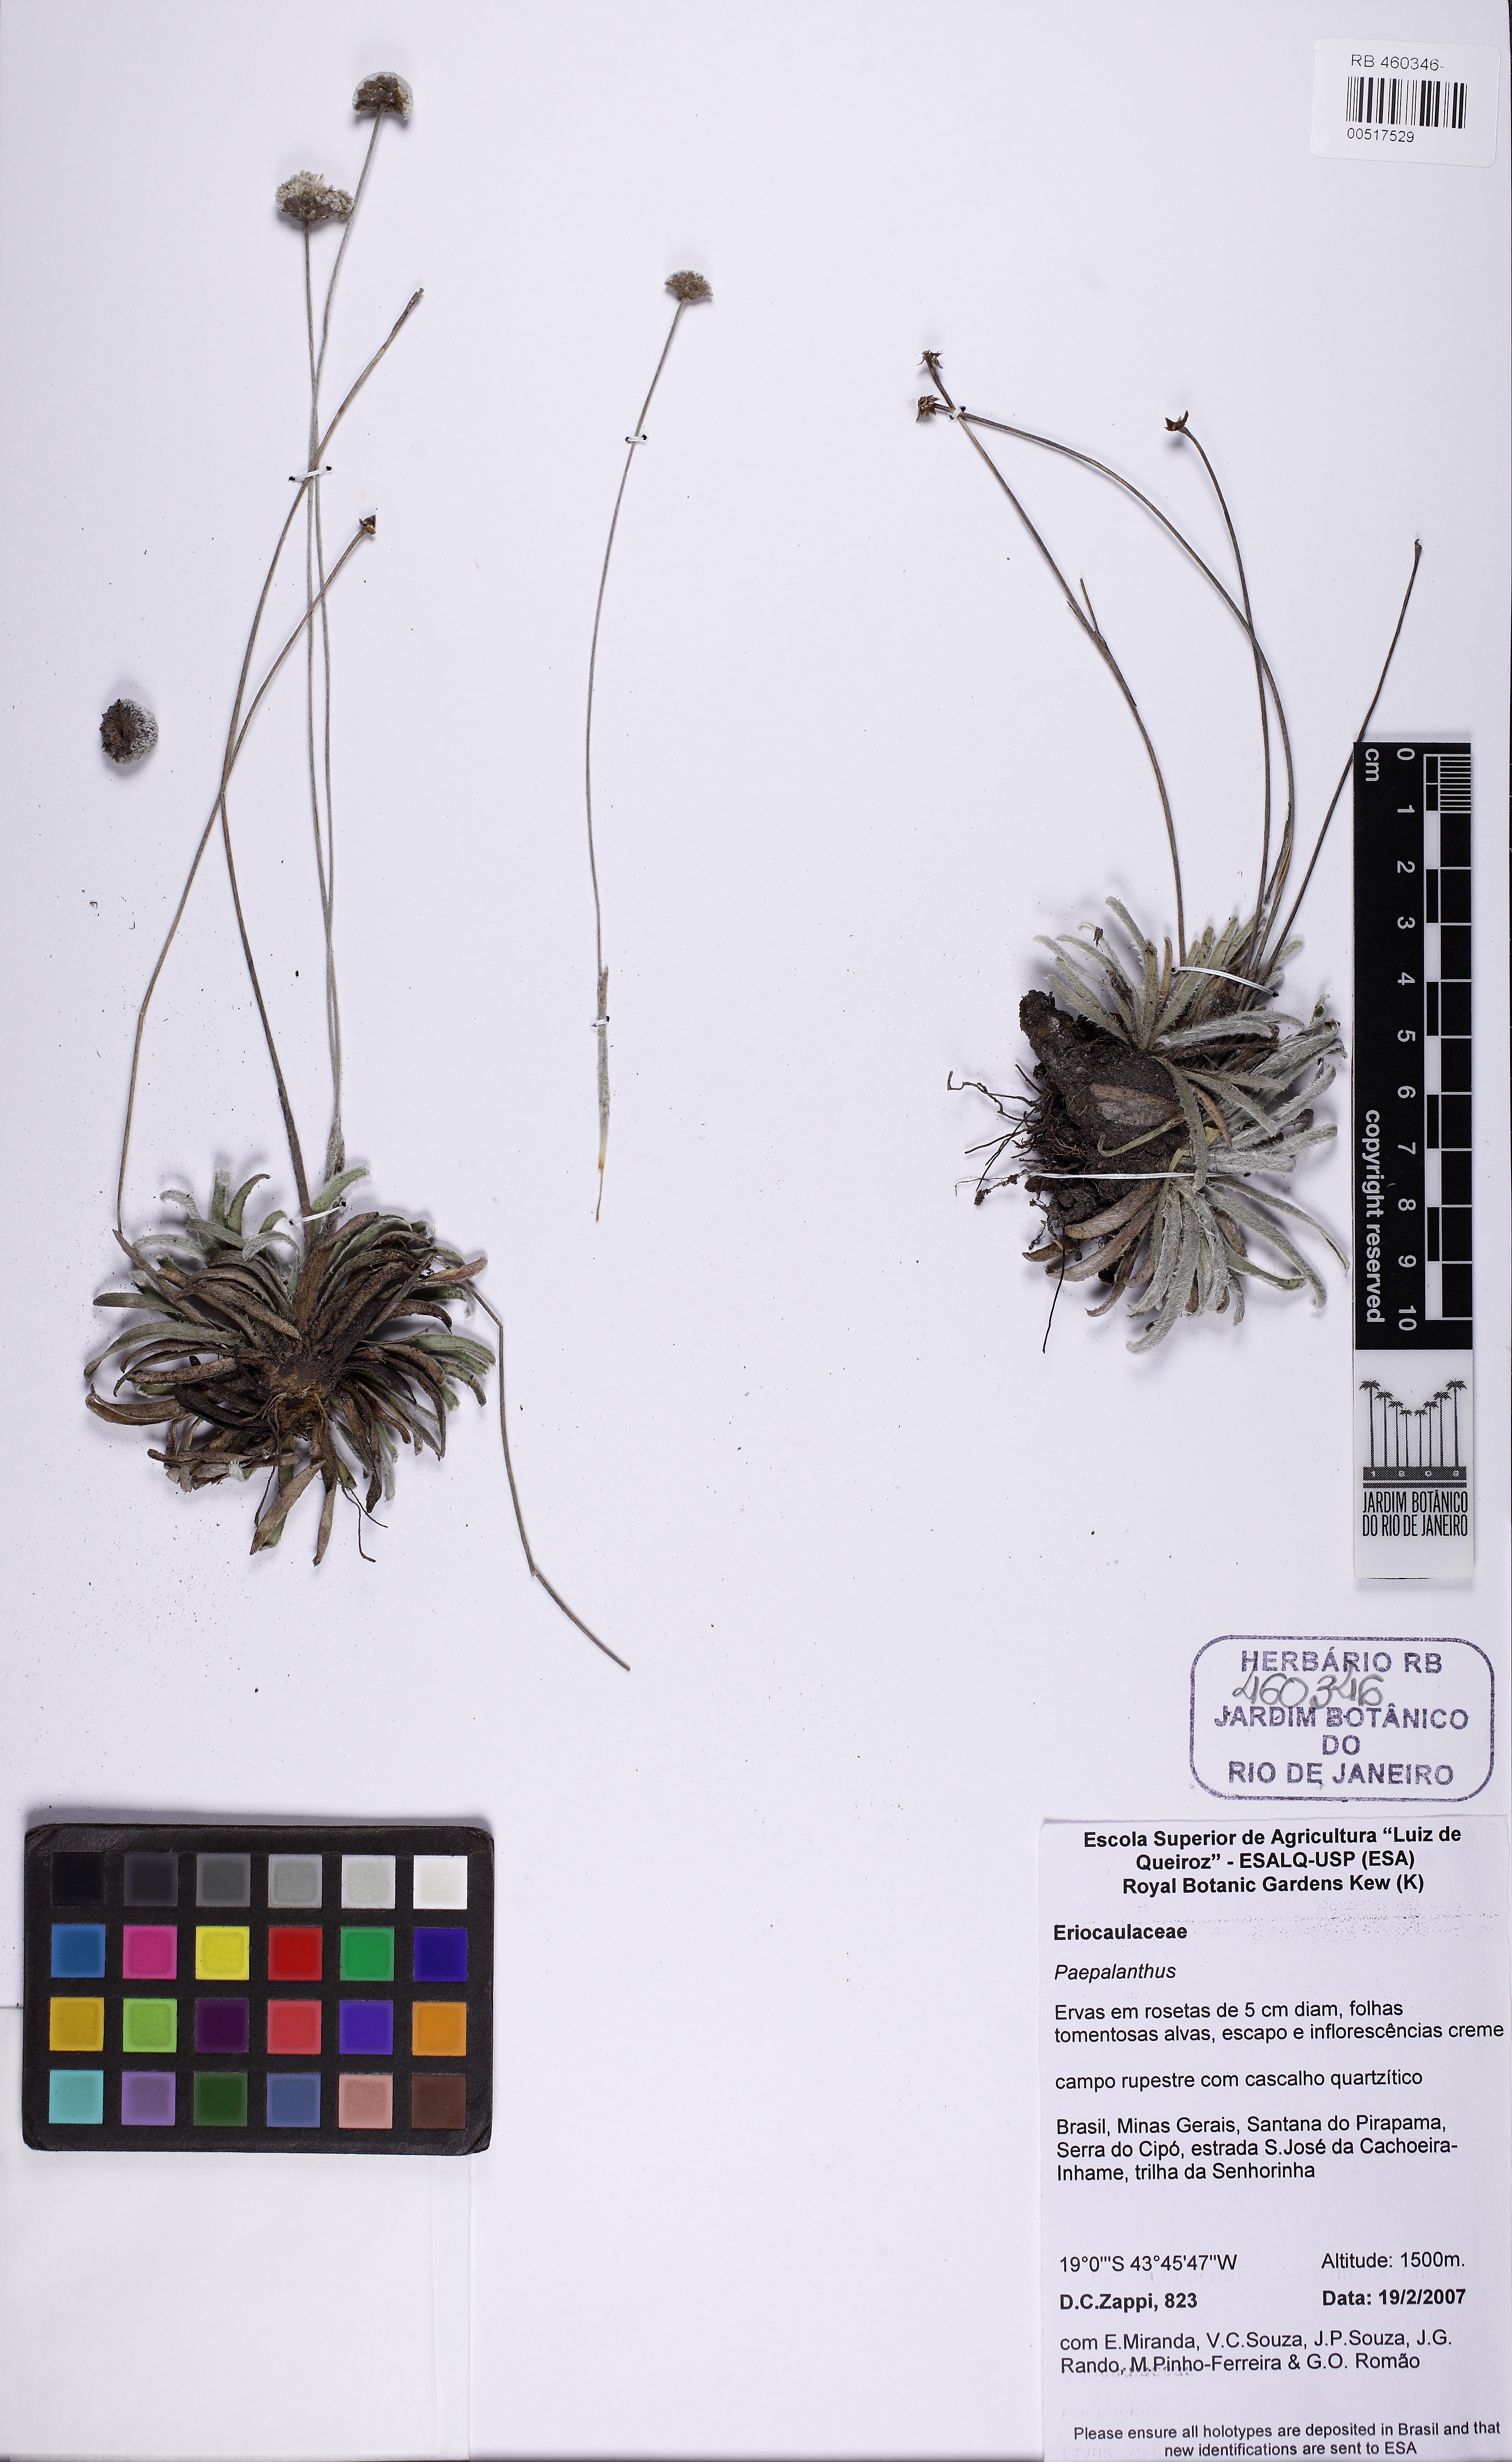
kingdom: Plantae
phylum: Tracheophyta
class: Liliopsida
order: Poales
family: Eriocaulaceae
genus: Paepalanthus
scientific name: Paepalanthus homomallus
